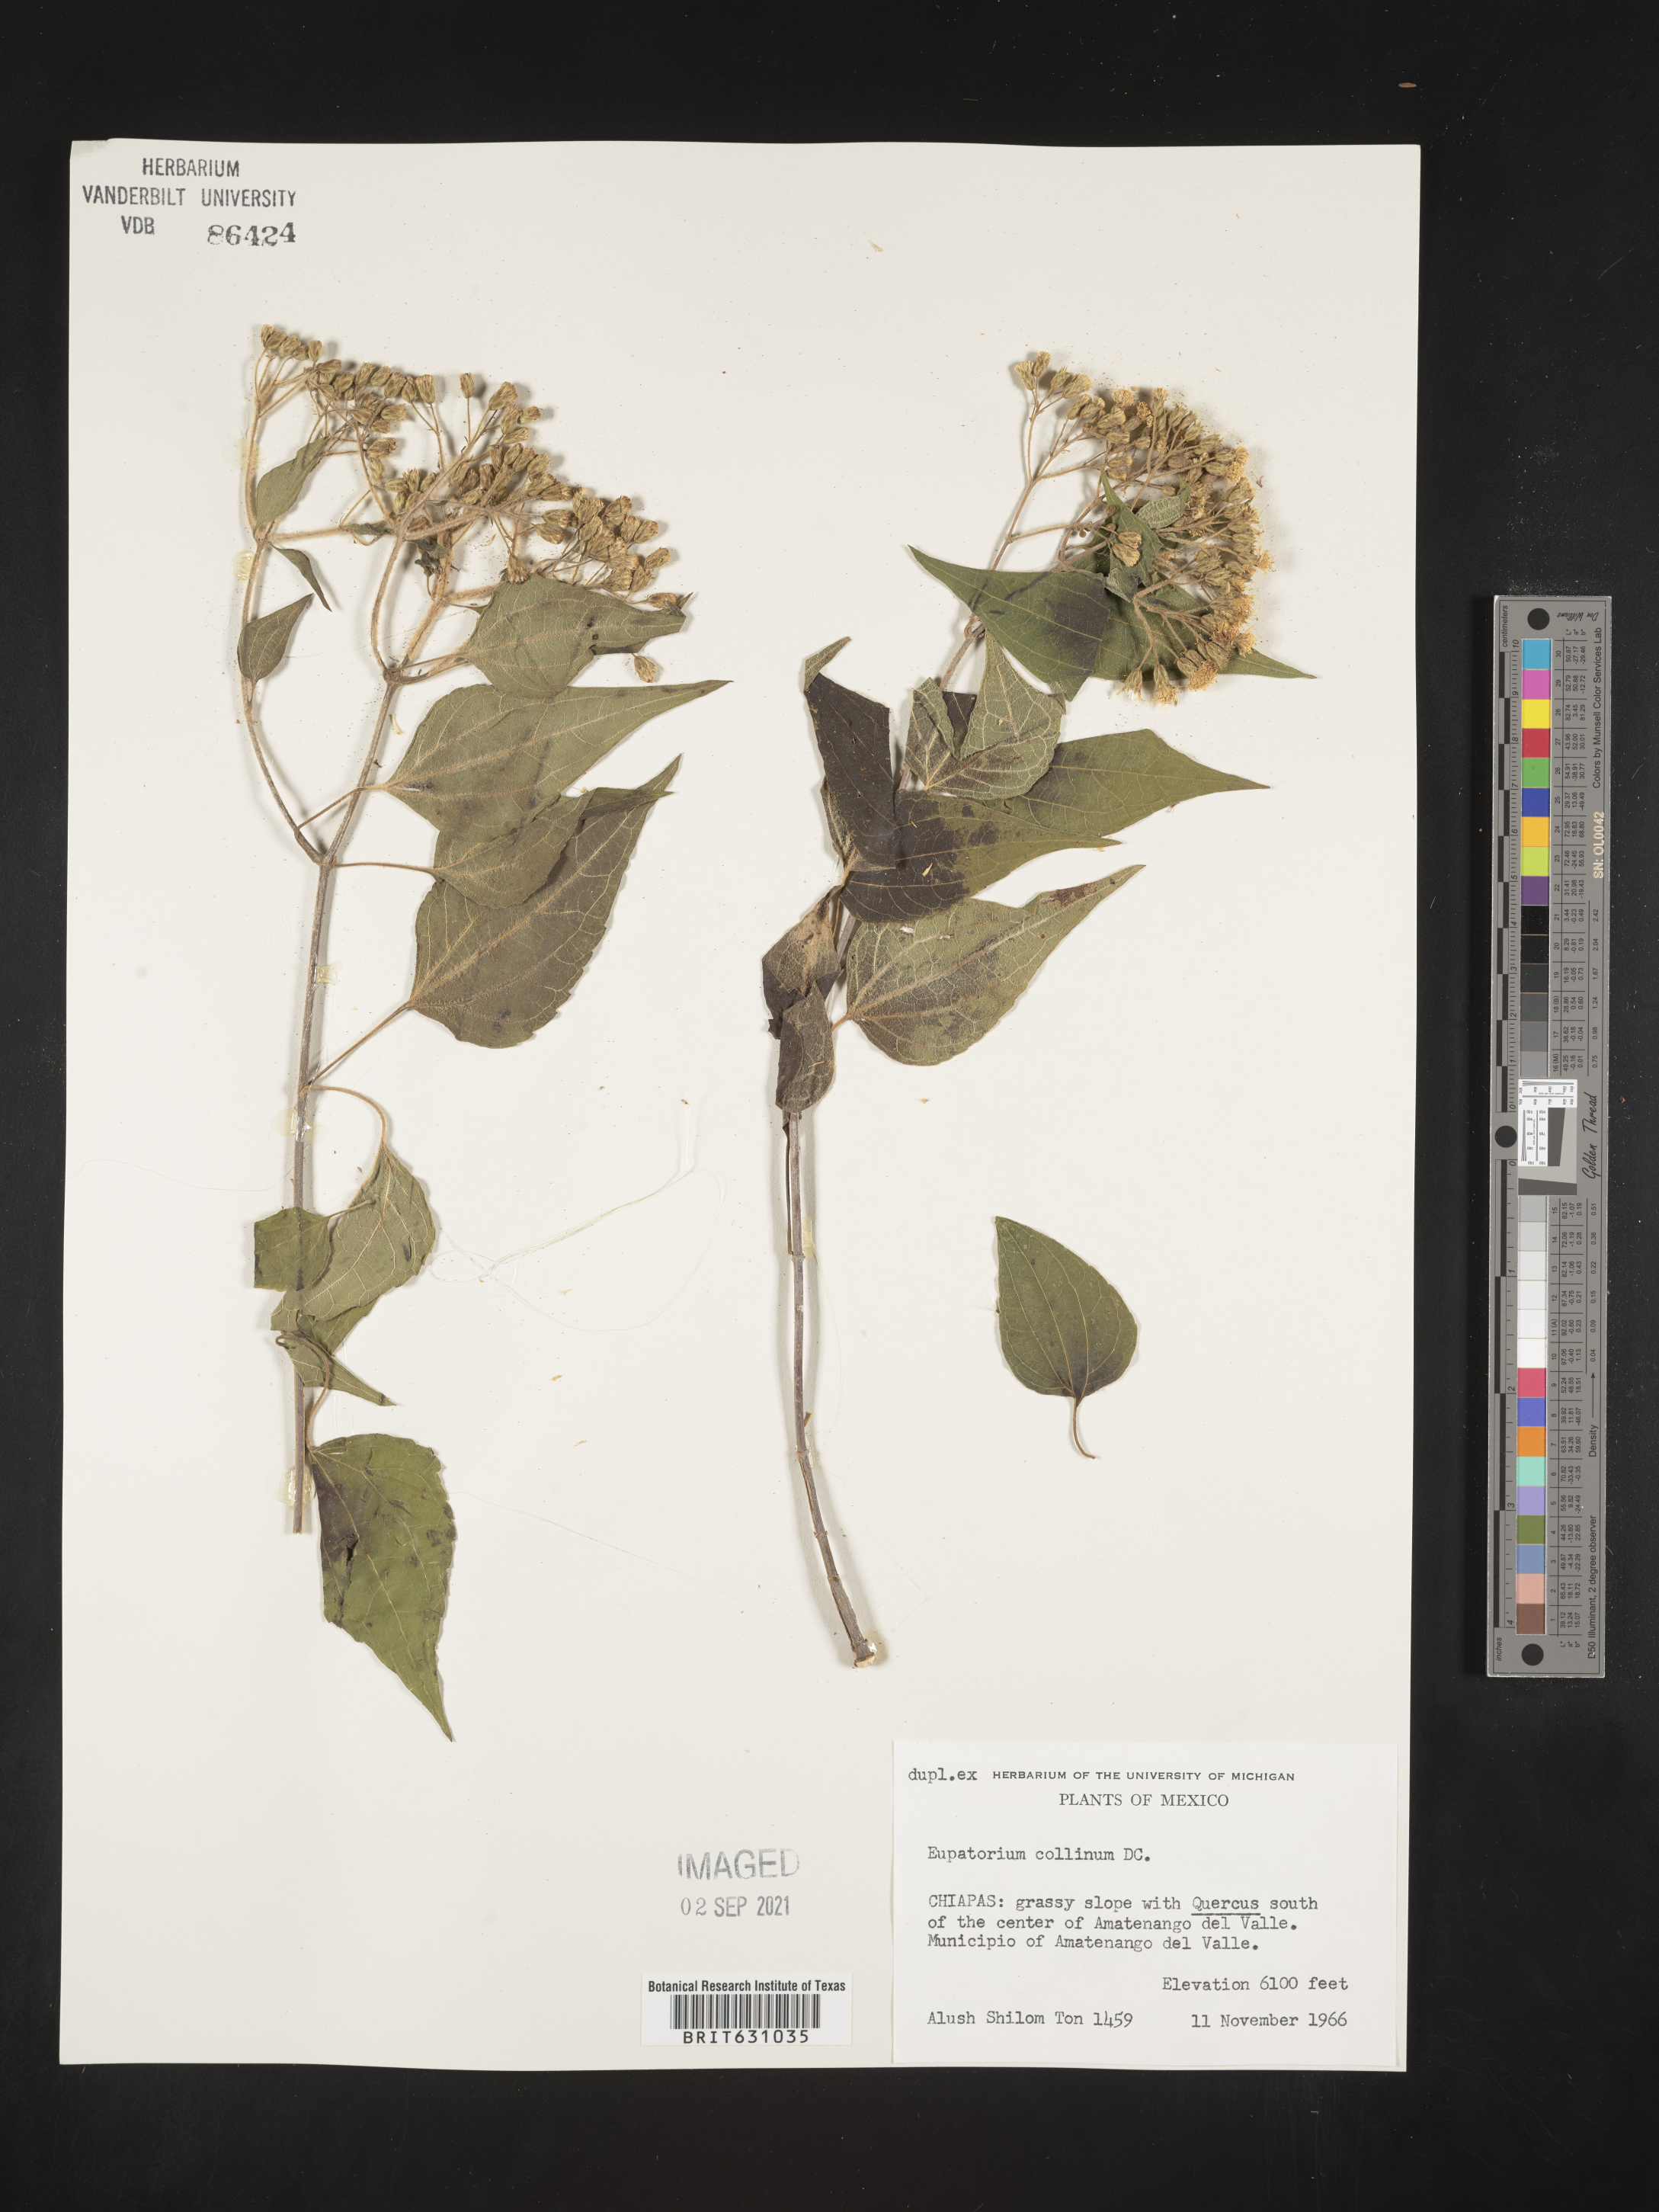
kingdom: Plantae
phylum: Tracheophyta
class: Magnoliopsida
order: Asterales
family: Asteraceae
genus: Eupatorium
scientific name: Eupatorium
